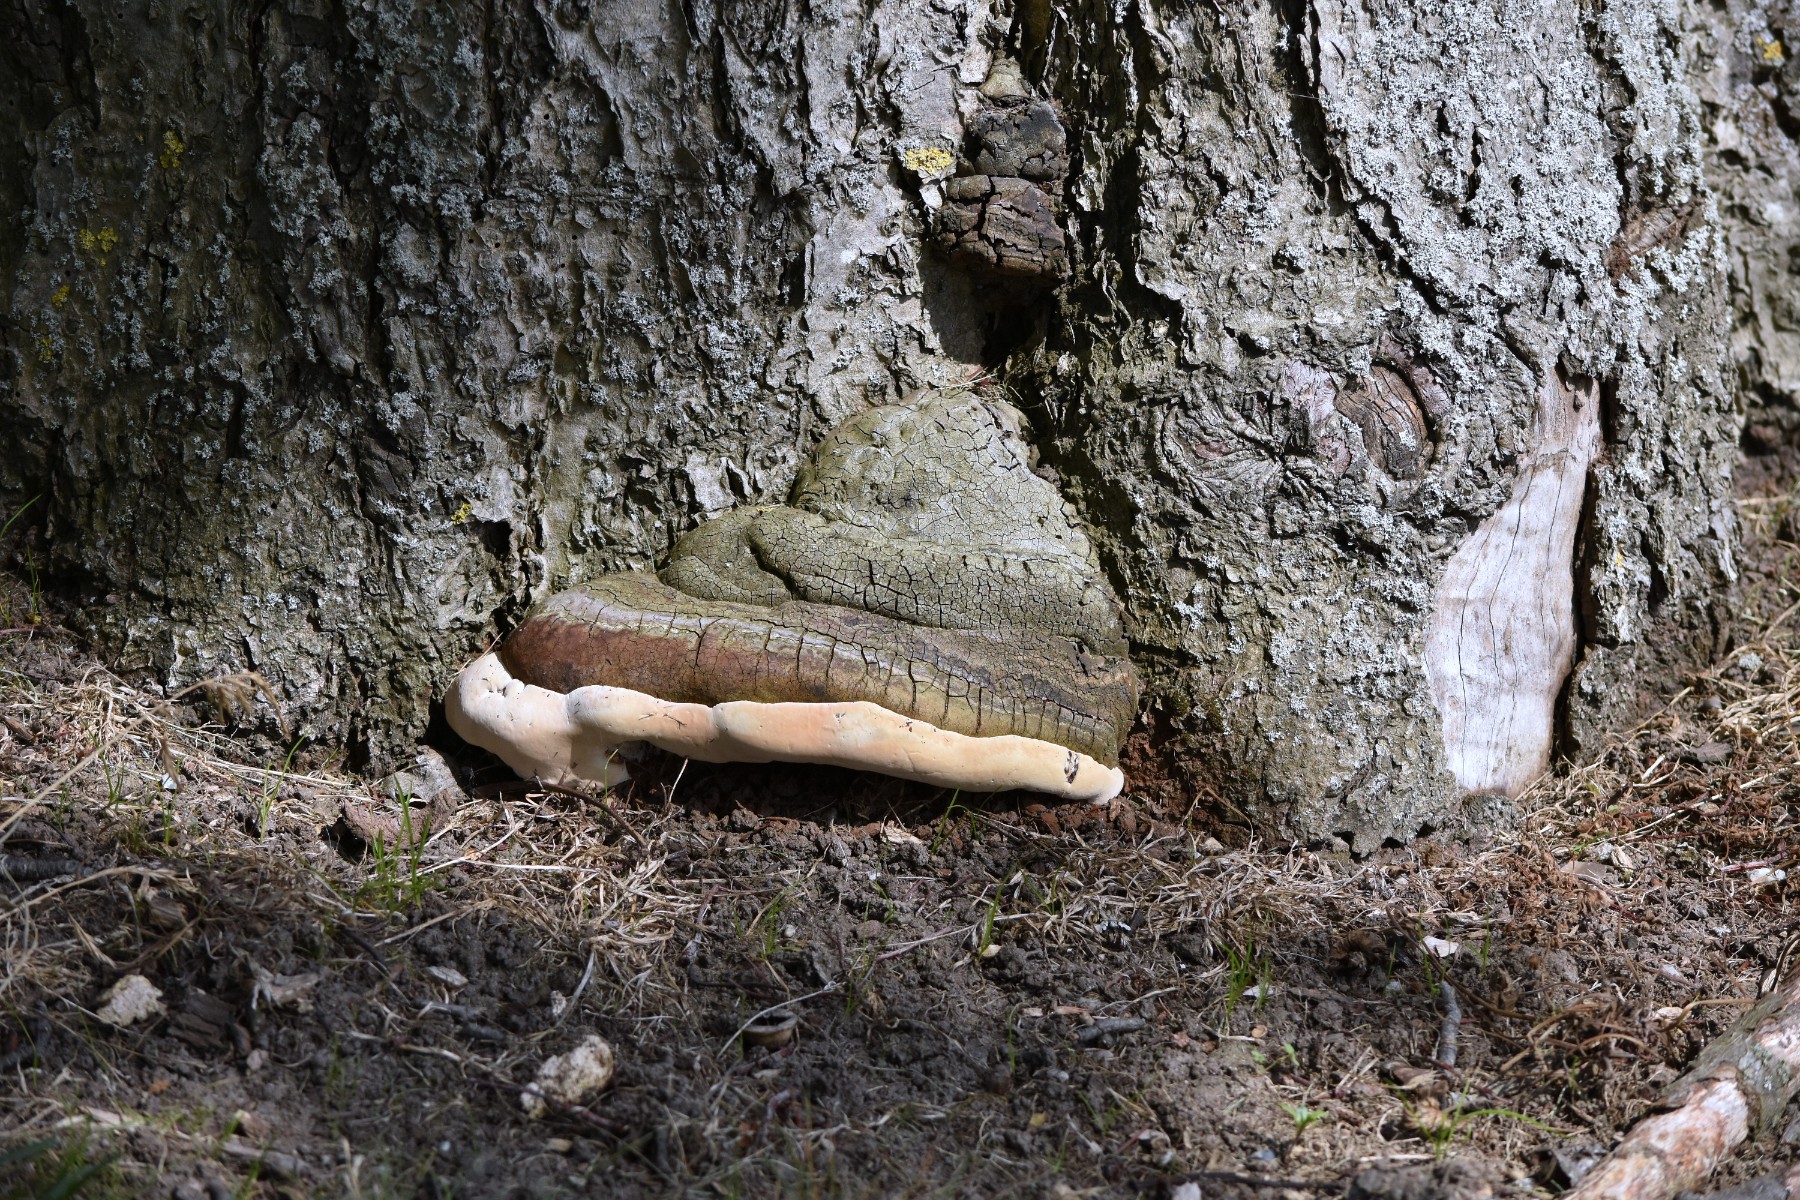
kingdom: Fungi
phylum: Basidiomycota
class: Agaricomycetes
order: Polyporales
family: Polyporaceae
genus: Ganoderma
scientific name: Ganoderma adspersum
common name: grov lakporesvamp
